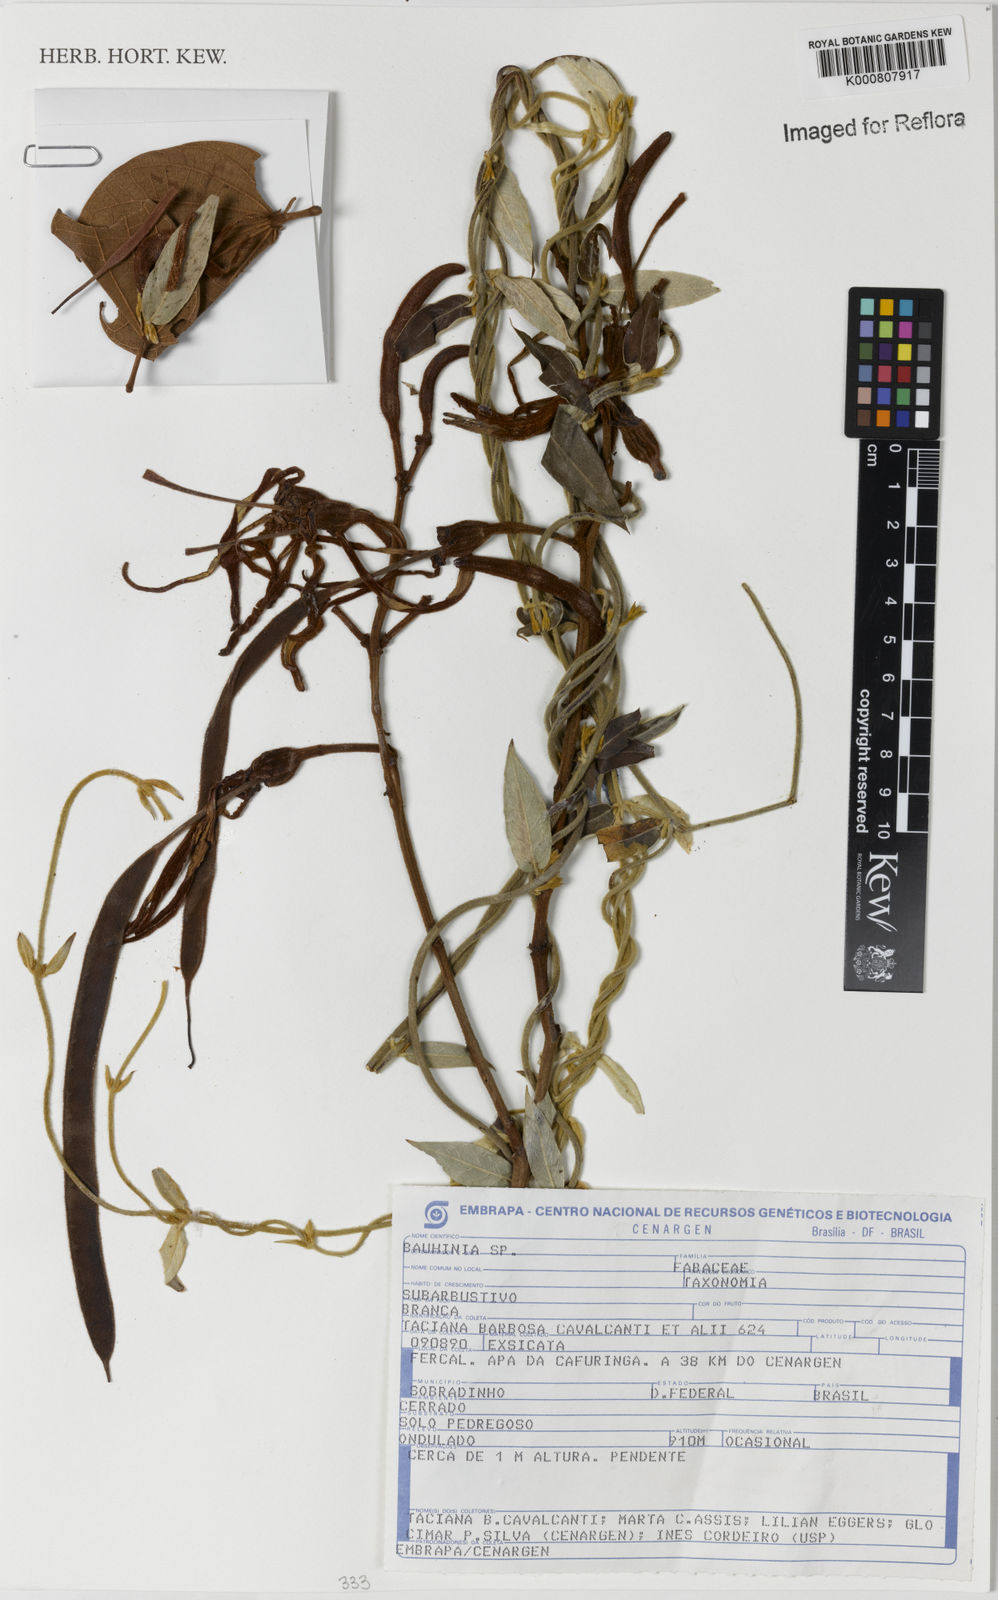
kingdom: Plantae
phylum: Tracheophyta
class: Magnoliopsida
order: Fabales
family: Fabaceae
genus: Bauhinia
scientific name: Bauhinia
